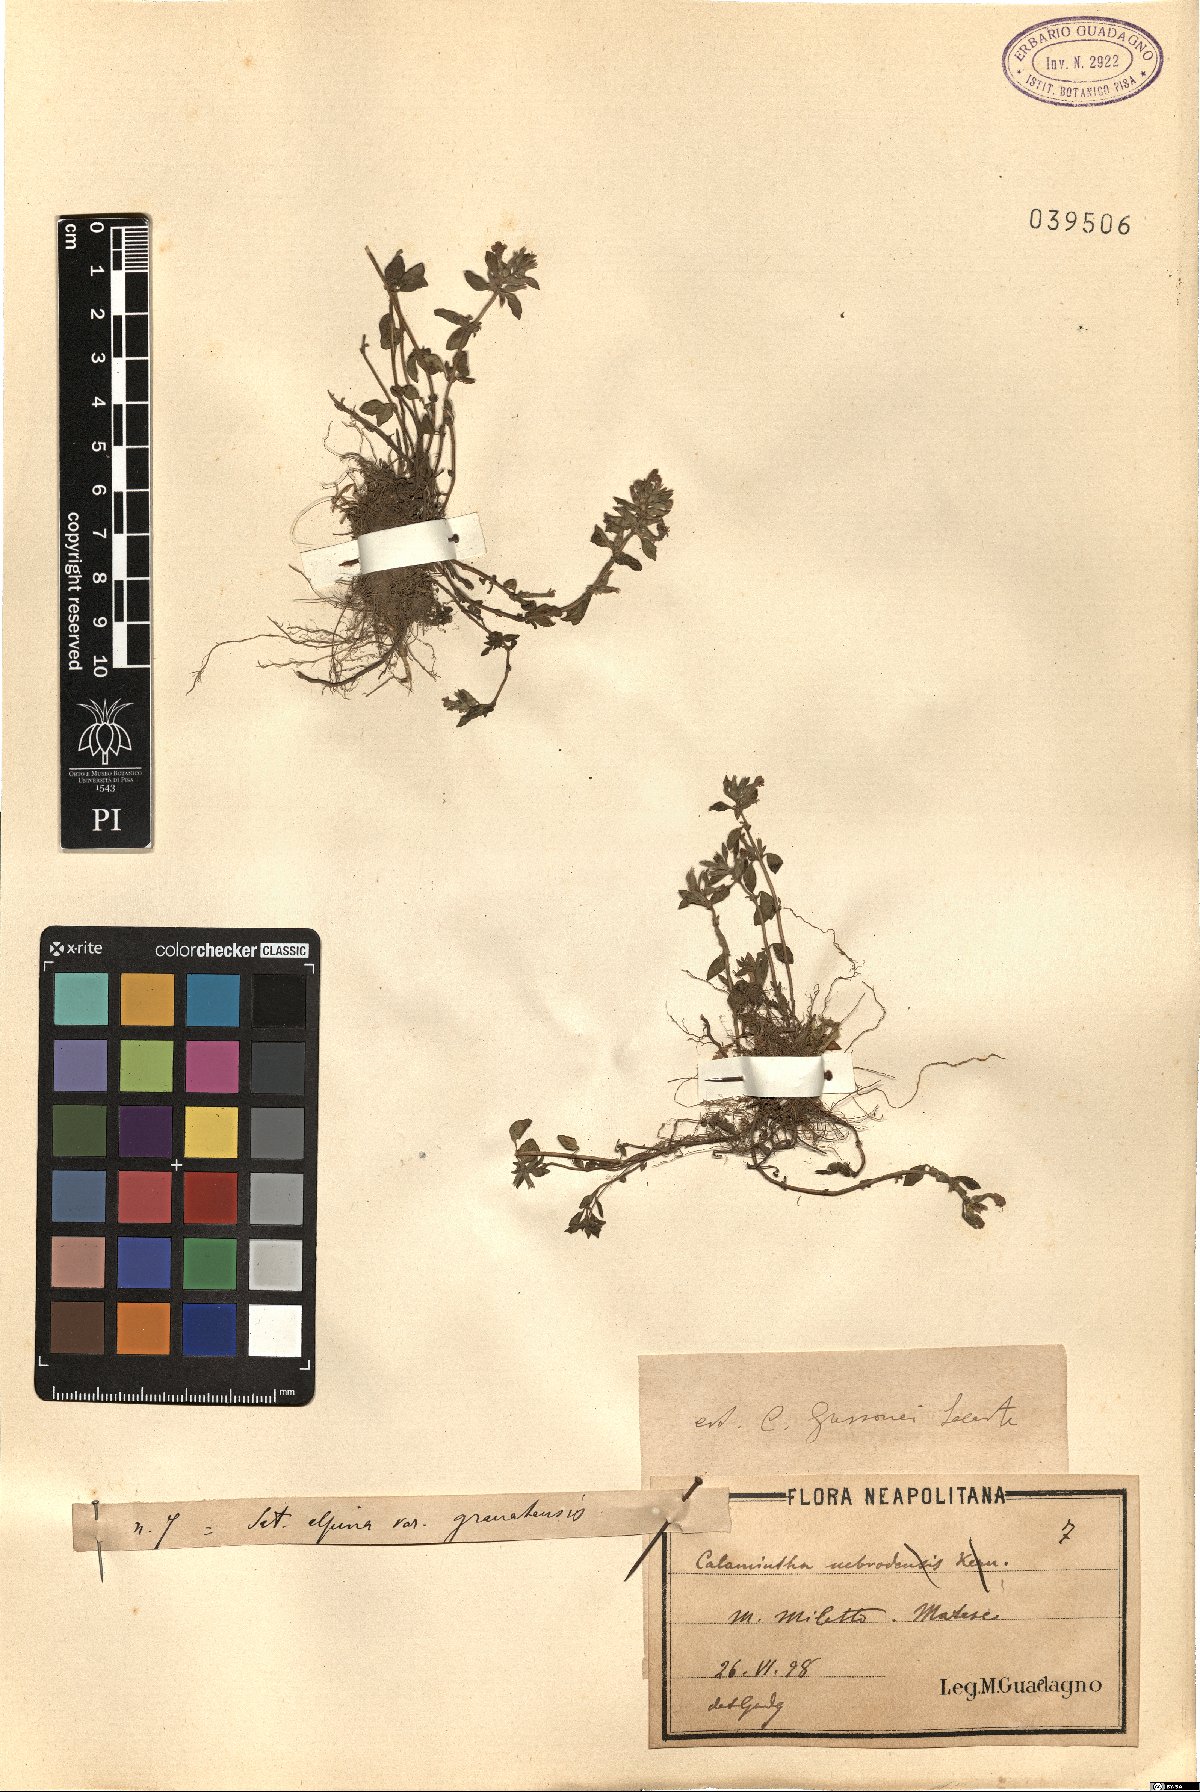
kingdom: Plantae
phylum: Tracheophyta
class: Magnoliopsida
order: Lamiales
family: Lamiaceae
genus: Clinopodium
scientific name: Clinopodium alpinum
